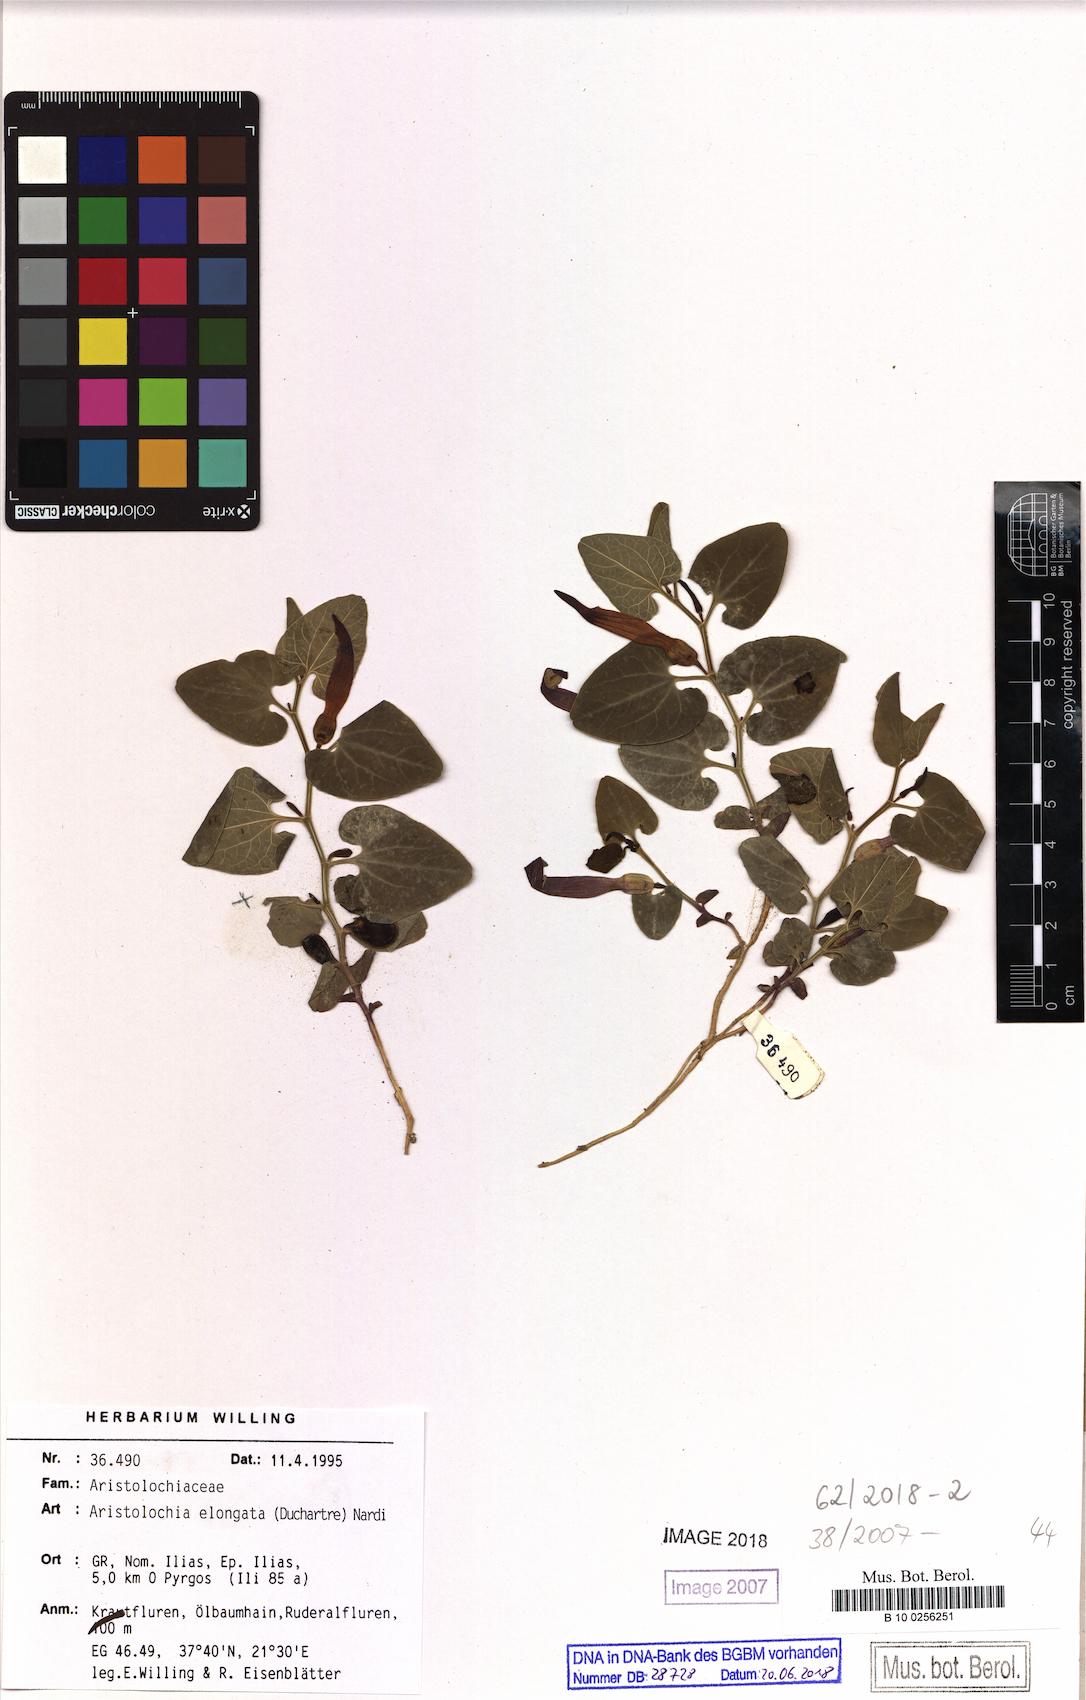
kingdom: Plantae
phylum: Tracheophyta
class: Magnoliopsida
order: Piperales
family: Aristolochiaceae
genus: Aristolochia
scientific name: Aristolochia nardiana
